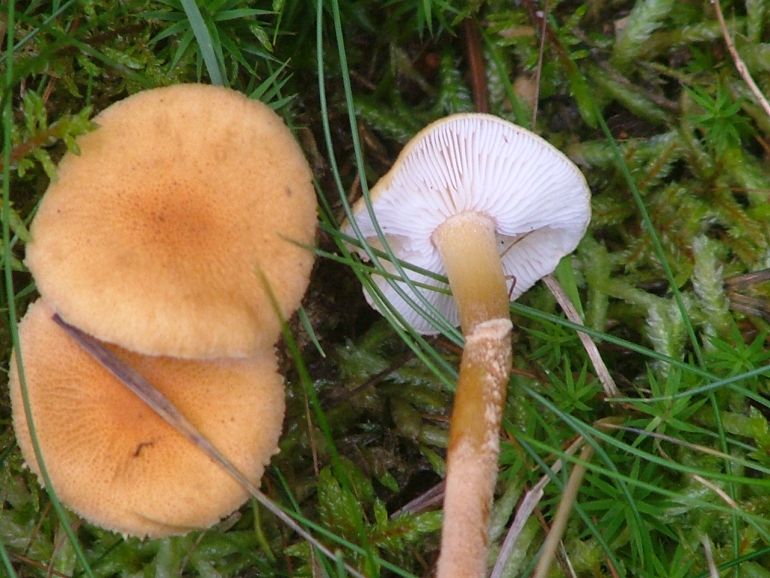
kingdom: Fungi
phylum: Basidiomycota
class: Agaricomycetes
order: Agaricales
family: Tricholomataceae
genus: Cystoderma
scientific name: Cystoderma amianthinum
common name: okkergul grynhat
